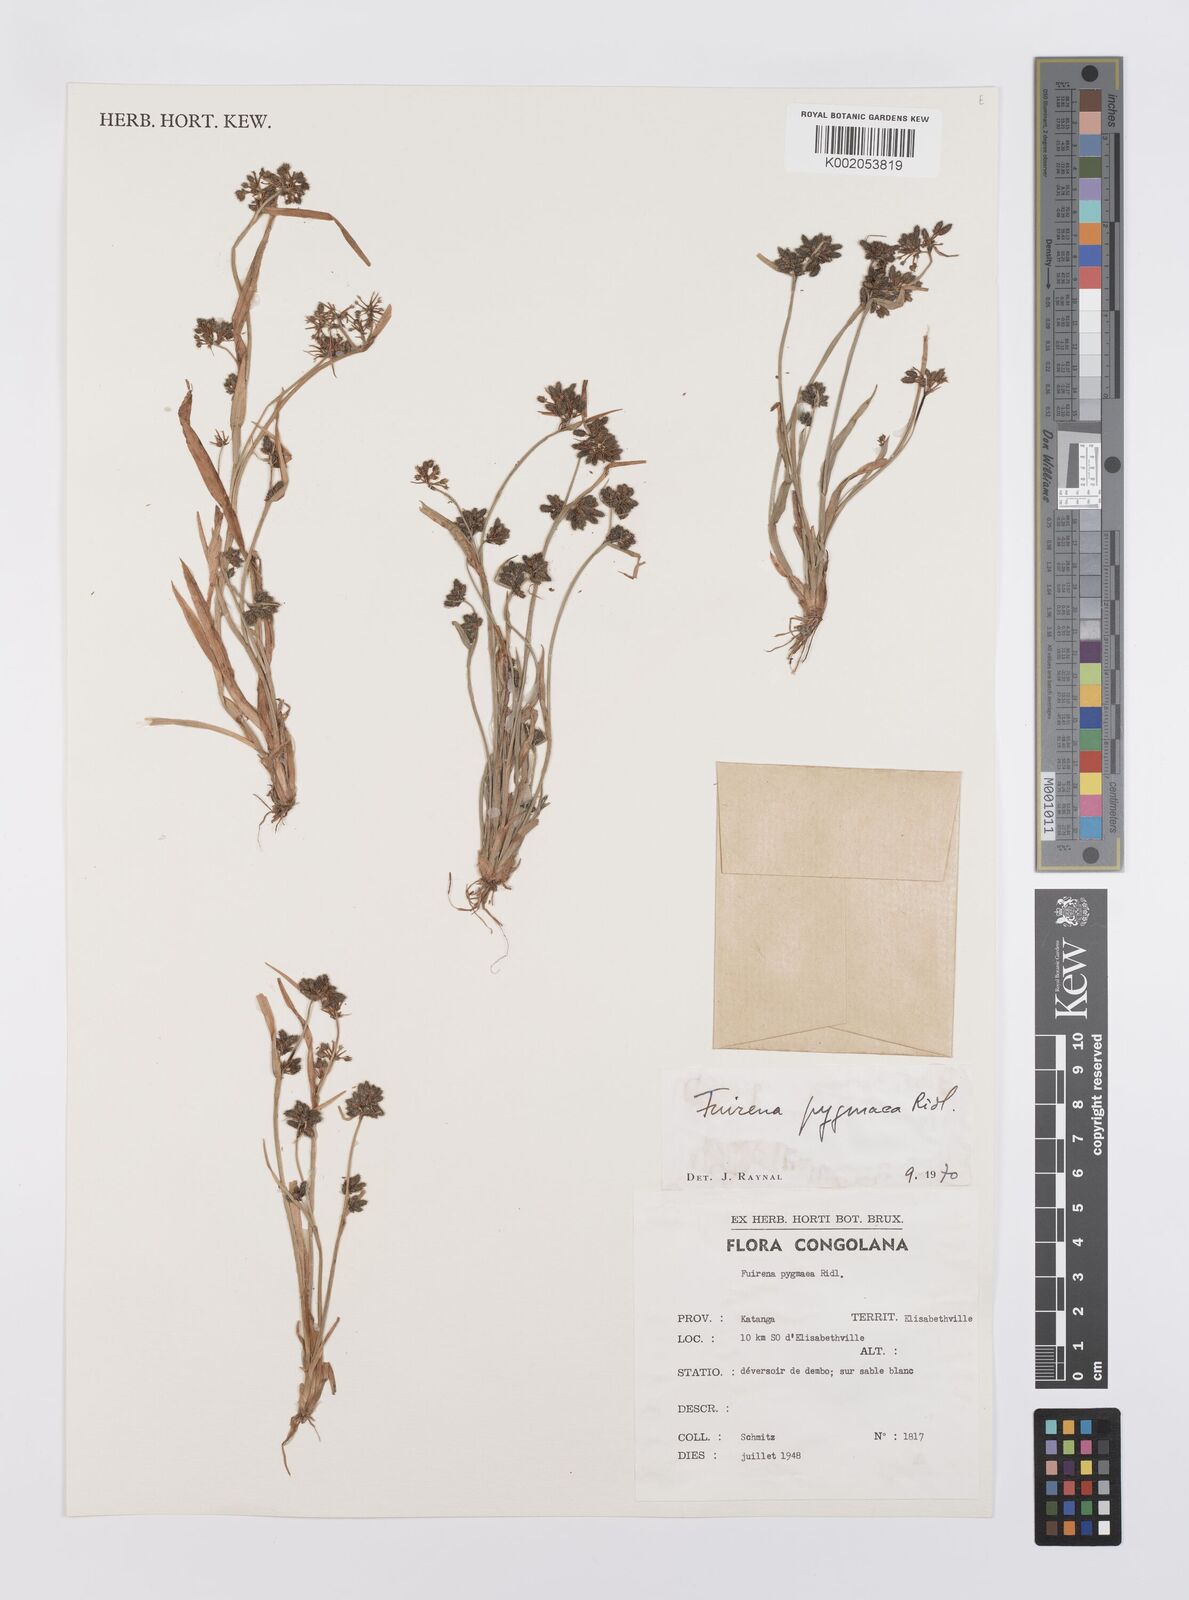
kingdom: Plantae
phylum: Tracheophyta
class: Liliopsida
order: Poales
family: Cyperaceae
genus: Fuirena
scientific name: Fuirena leptostachya
